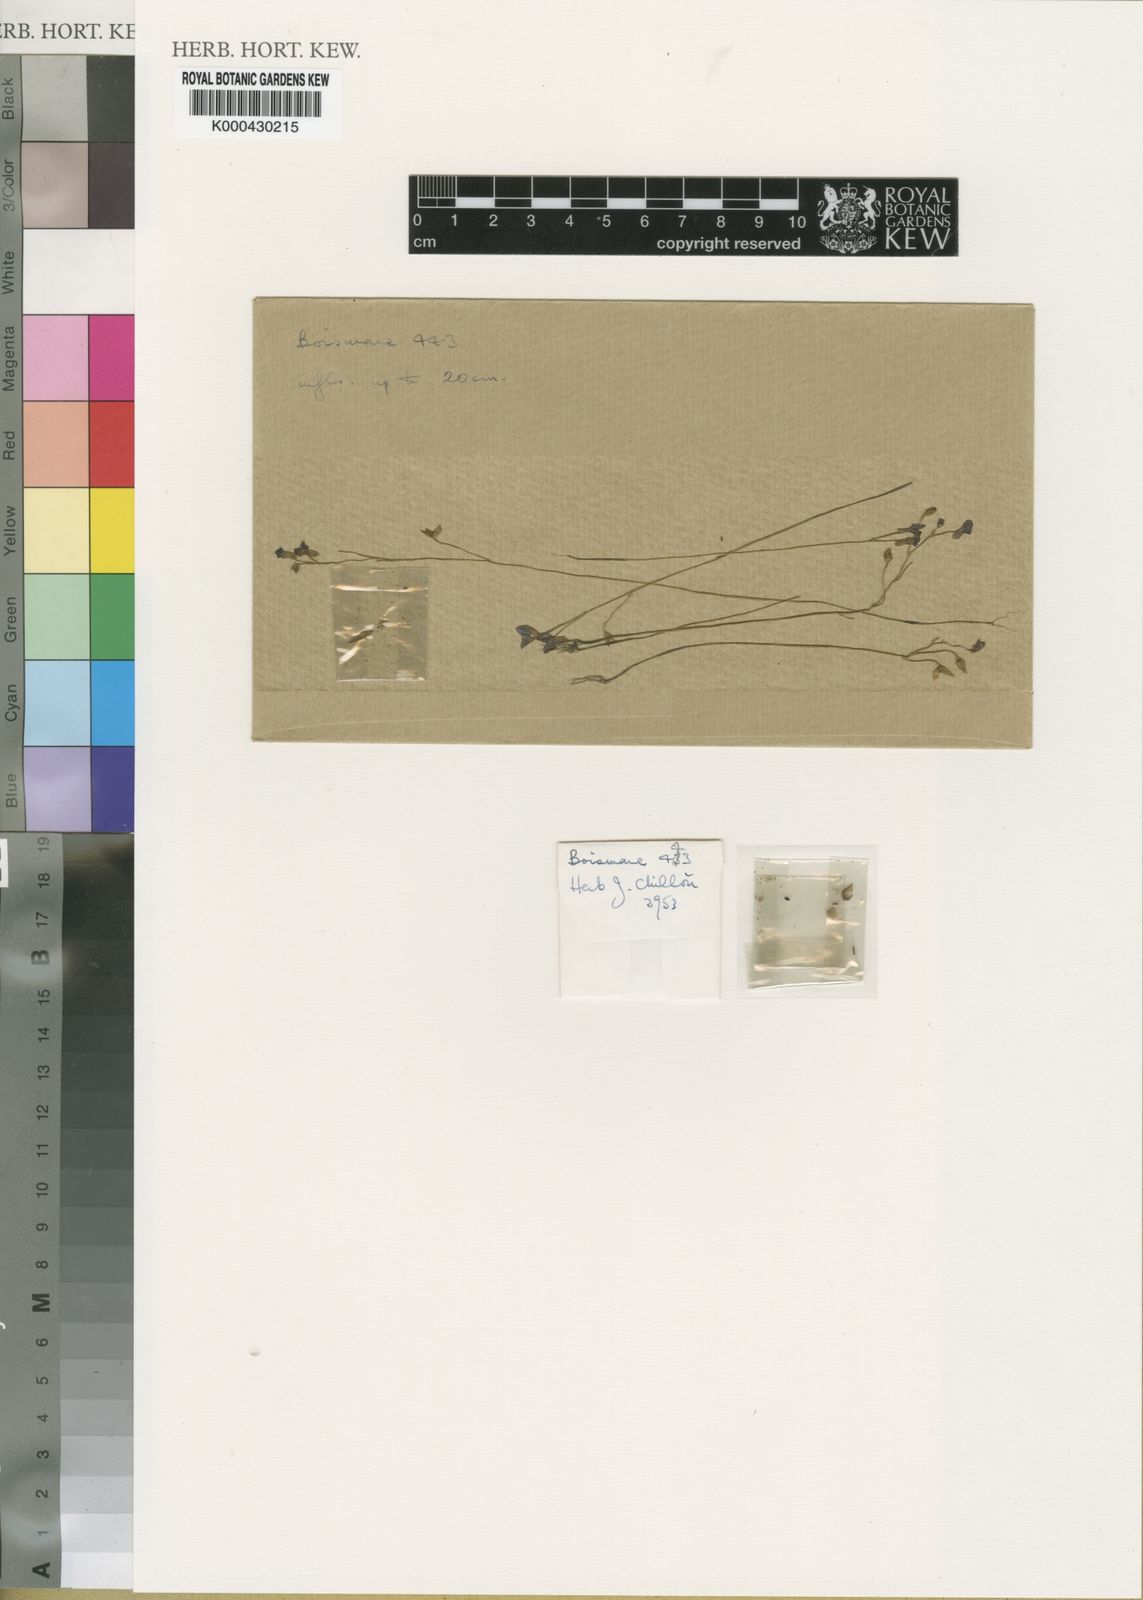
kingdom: Plantae
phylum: Tracheophyta
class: Magnoliopsida
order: Lamiales
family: Lentibulariaceae
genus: Utricularia
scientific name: Utricularia pobeguinii
